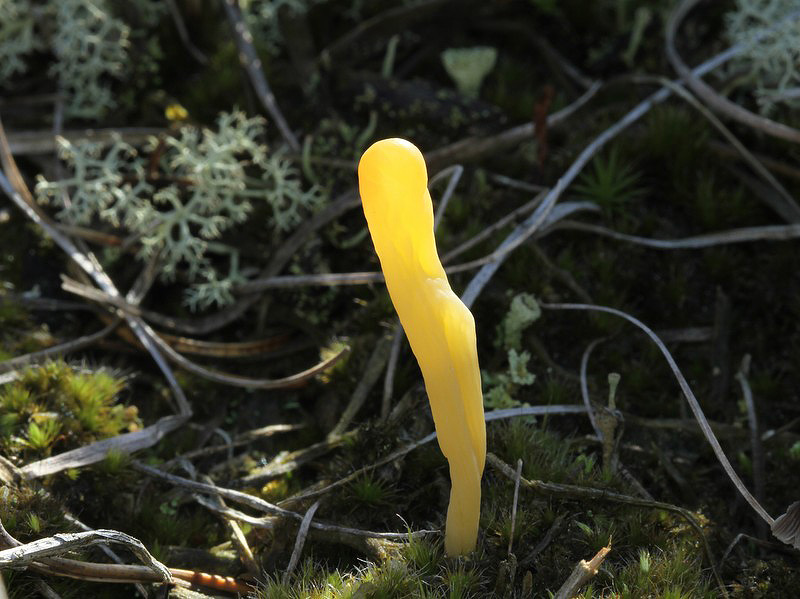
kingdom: Fungi
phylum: Basidiomycota
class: Agaricomycetes
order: Agaricales
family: Clavariaceae
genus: Clavaria
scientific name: Clavaria argillacea
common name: lerfarvet køllesvamp
